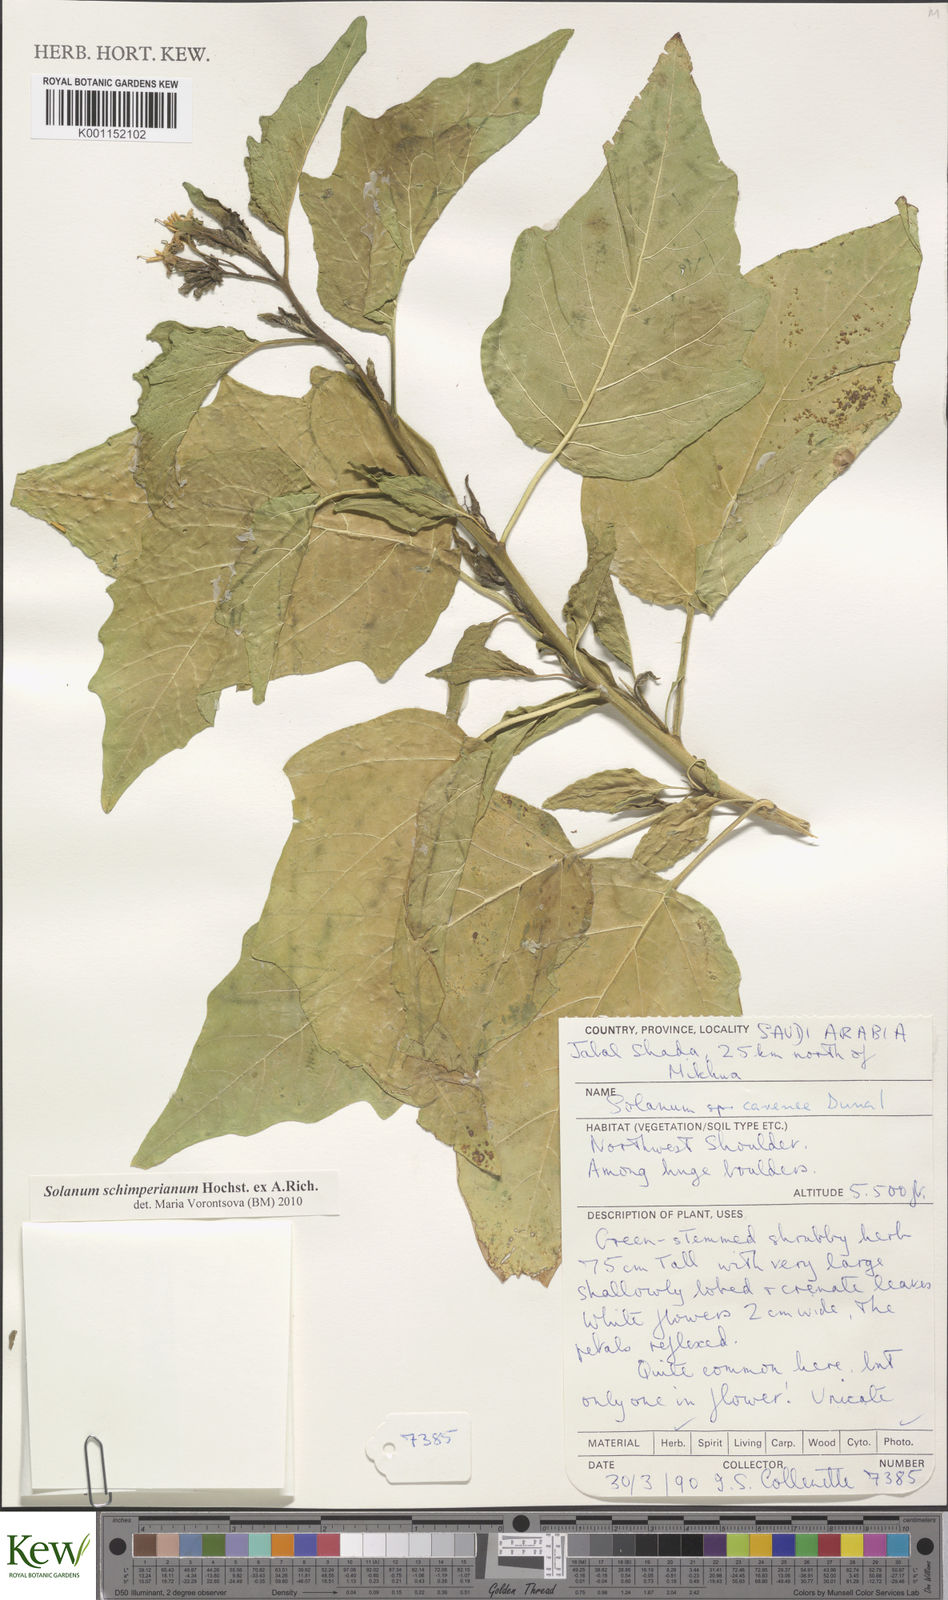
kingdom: Plantae
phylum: Tracheophyta
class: Magnoliopsida
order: Solanales
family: Solanaceae
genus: Solanum
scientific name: Solanum schimperianum
